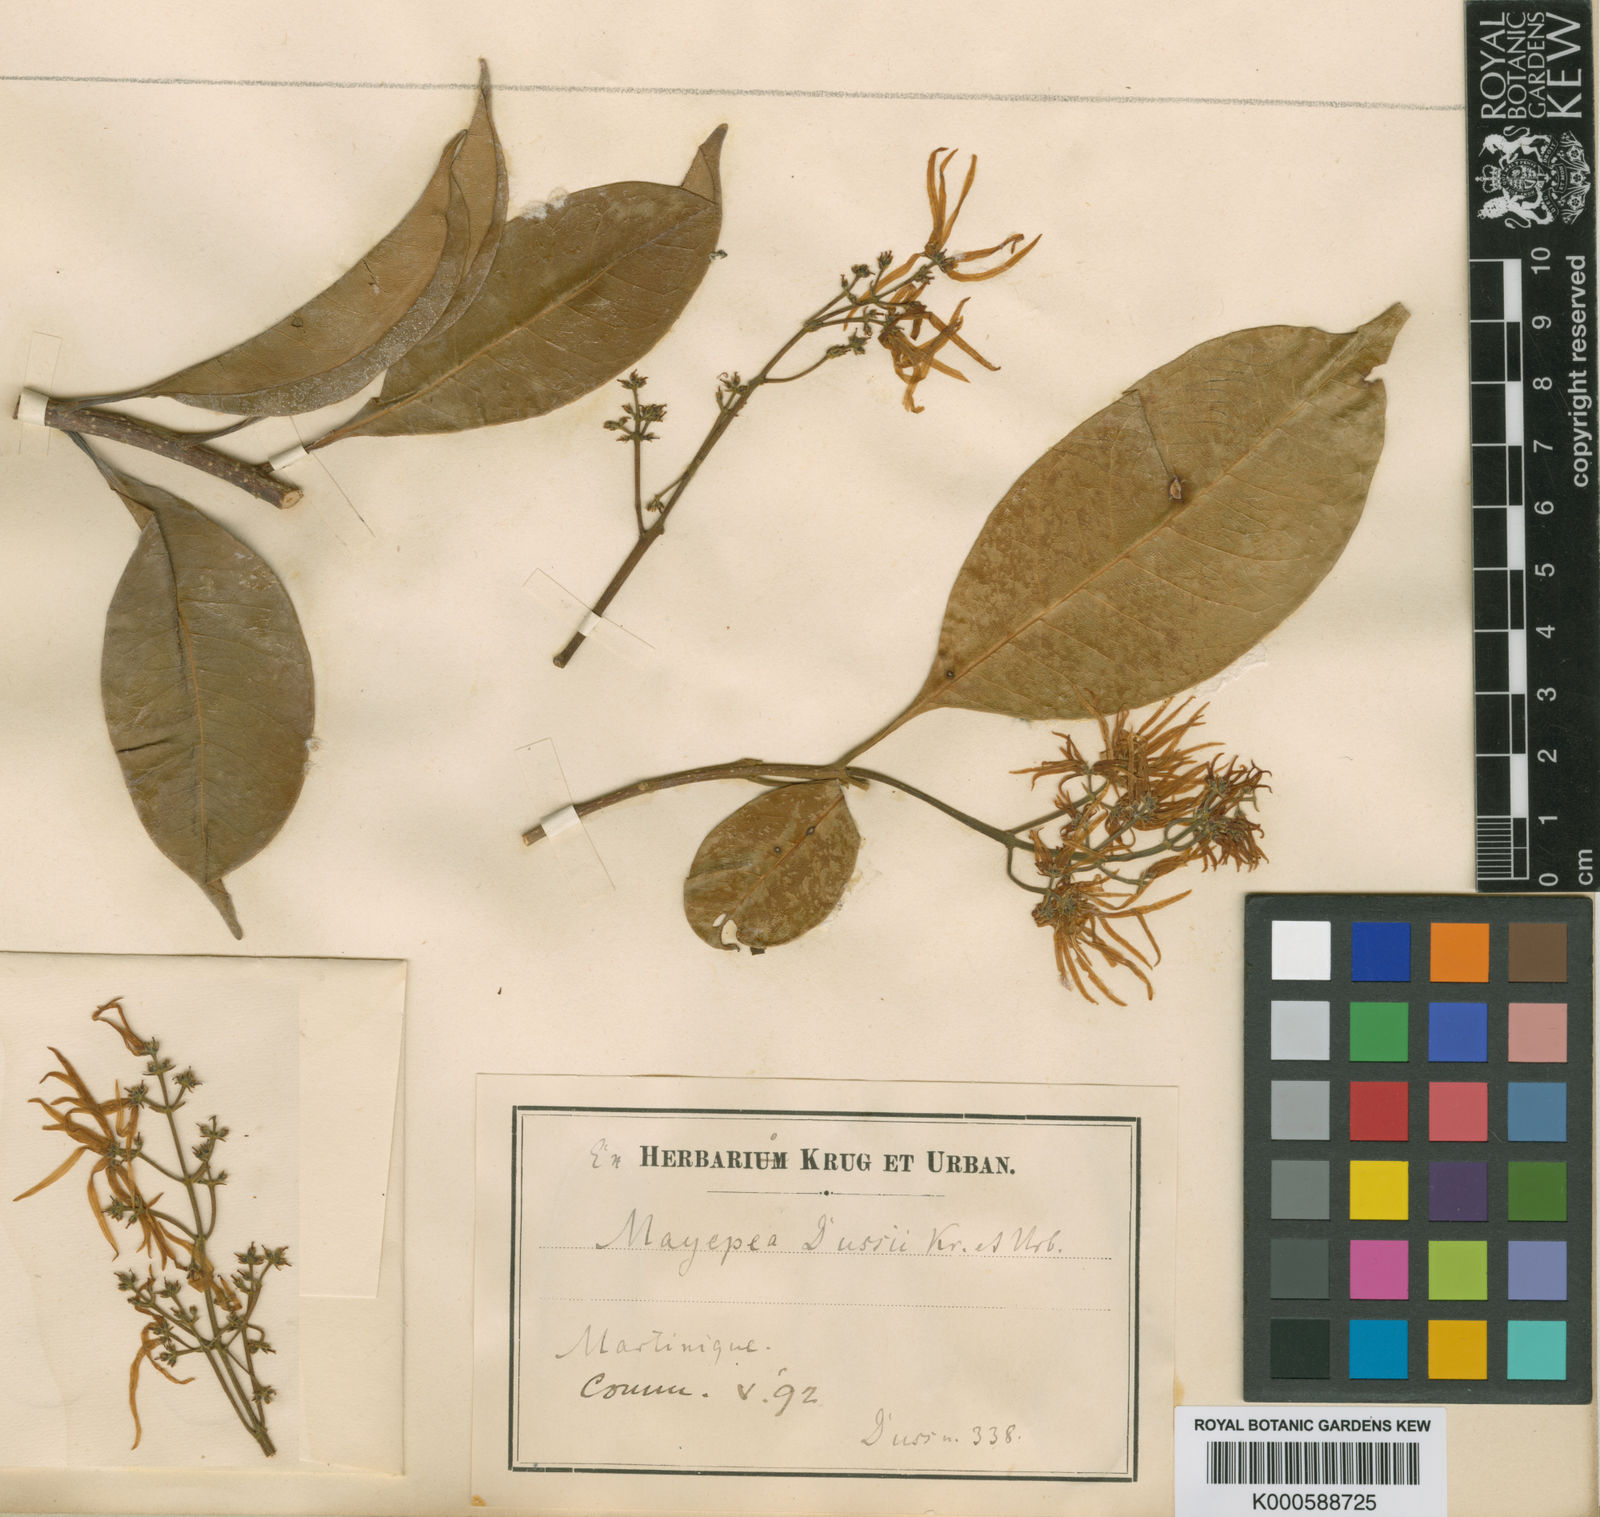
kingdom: Plantae
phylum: Tracheophyta
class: Magnoliopsida
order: Lamiales
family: Oleaceae
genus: Chionanthus
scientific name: Chionanthus dussii
